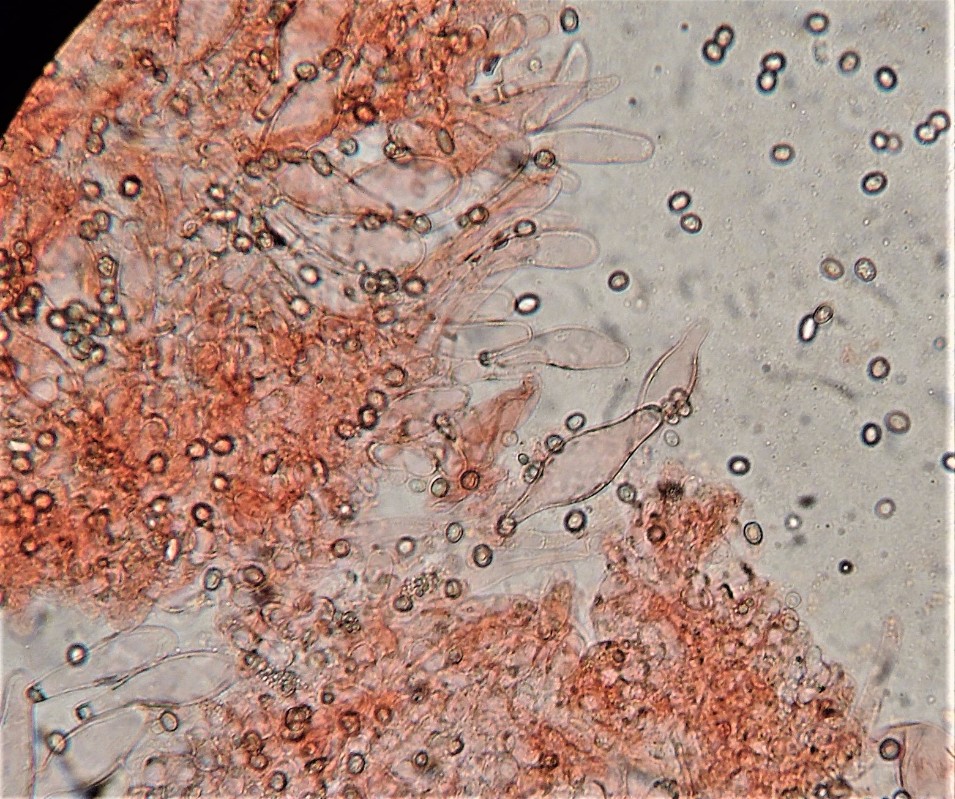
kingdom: Fungi
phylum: Basidiomycota
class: Agaricomycetes
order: Agaricales
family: Pluteaceae
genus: Volvariella
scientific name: Volvariella hypopithys
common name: dunstokket posesvamp
